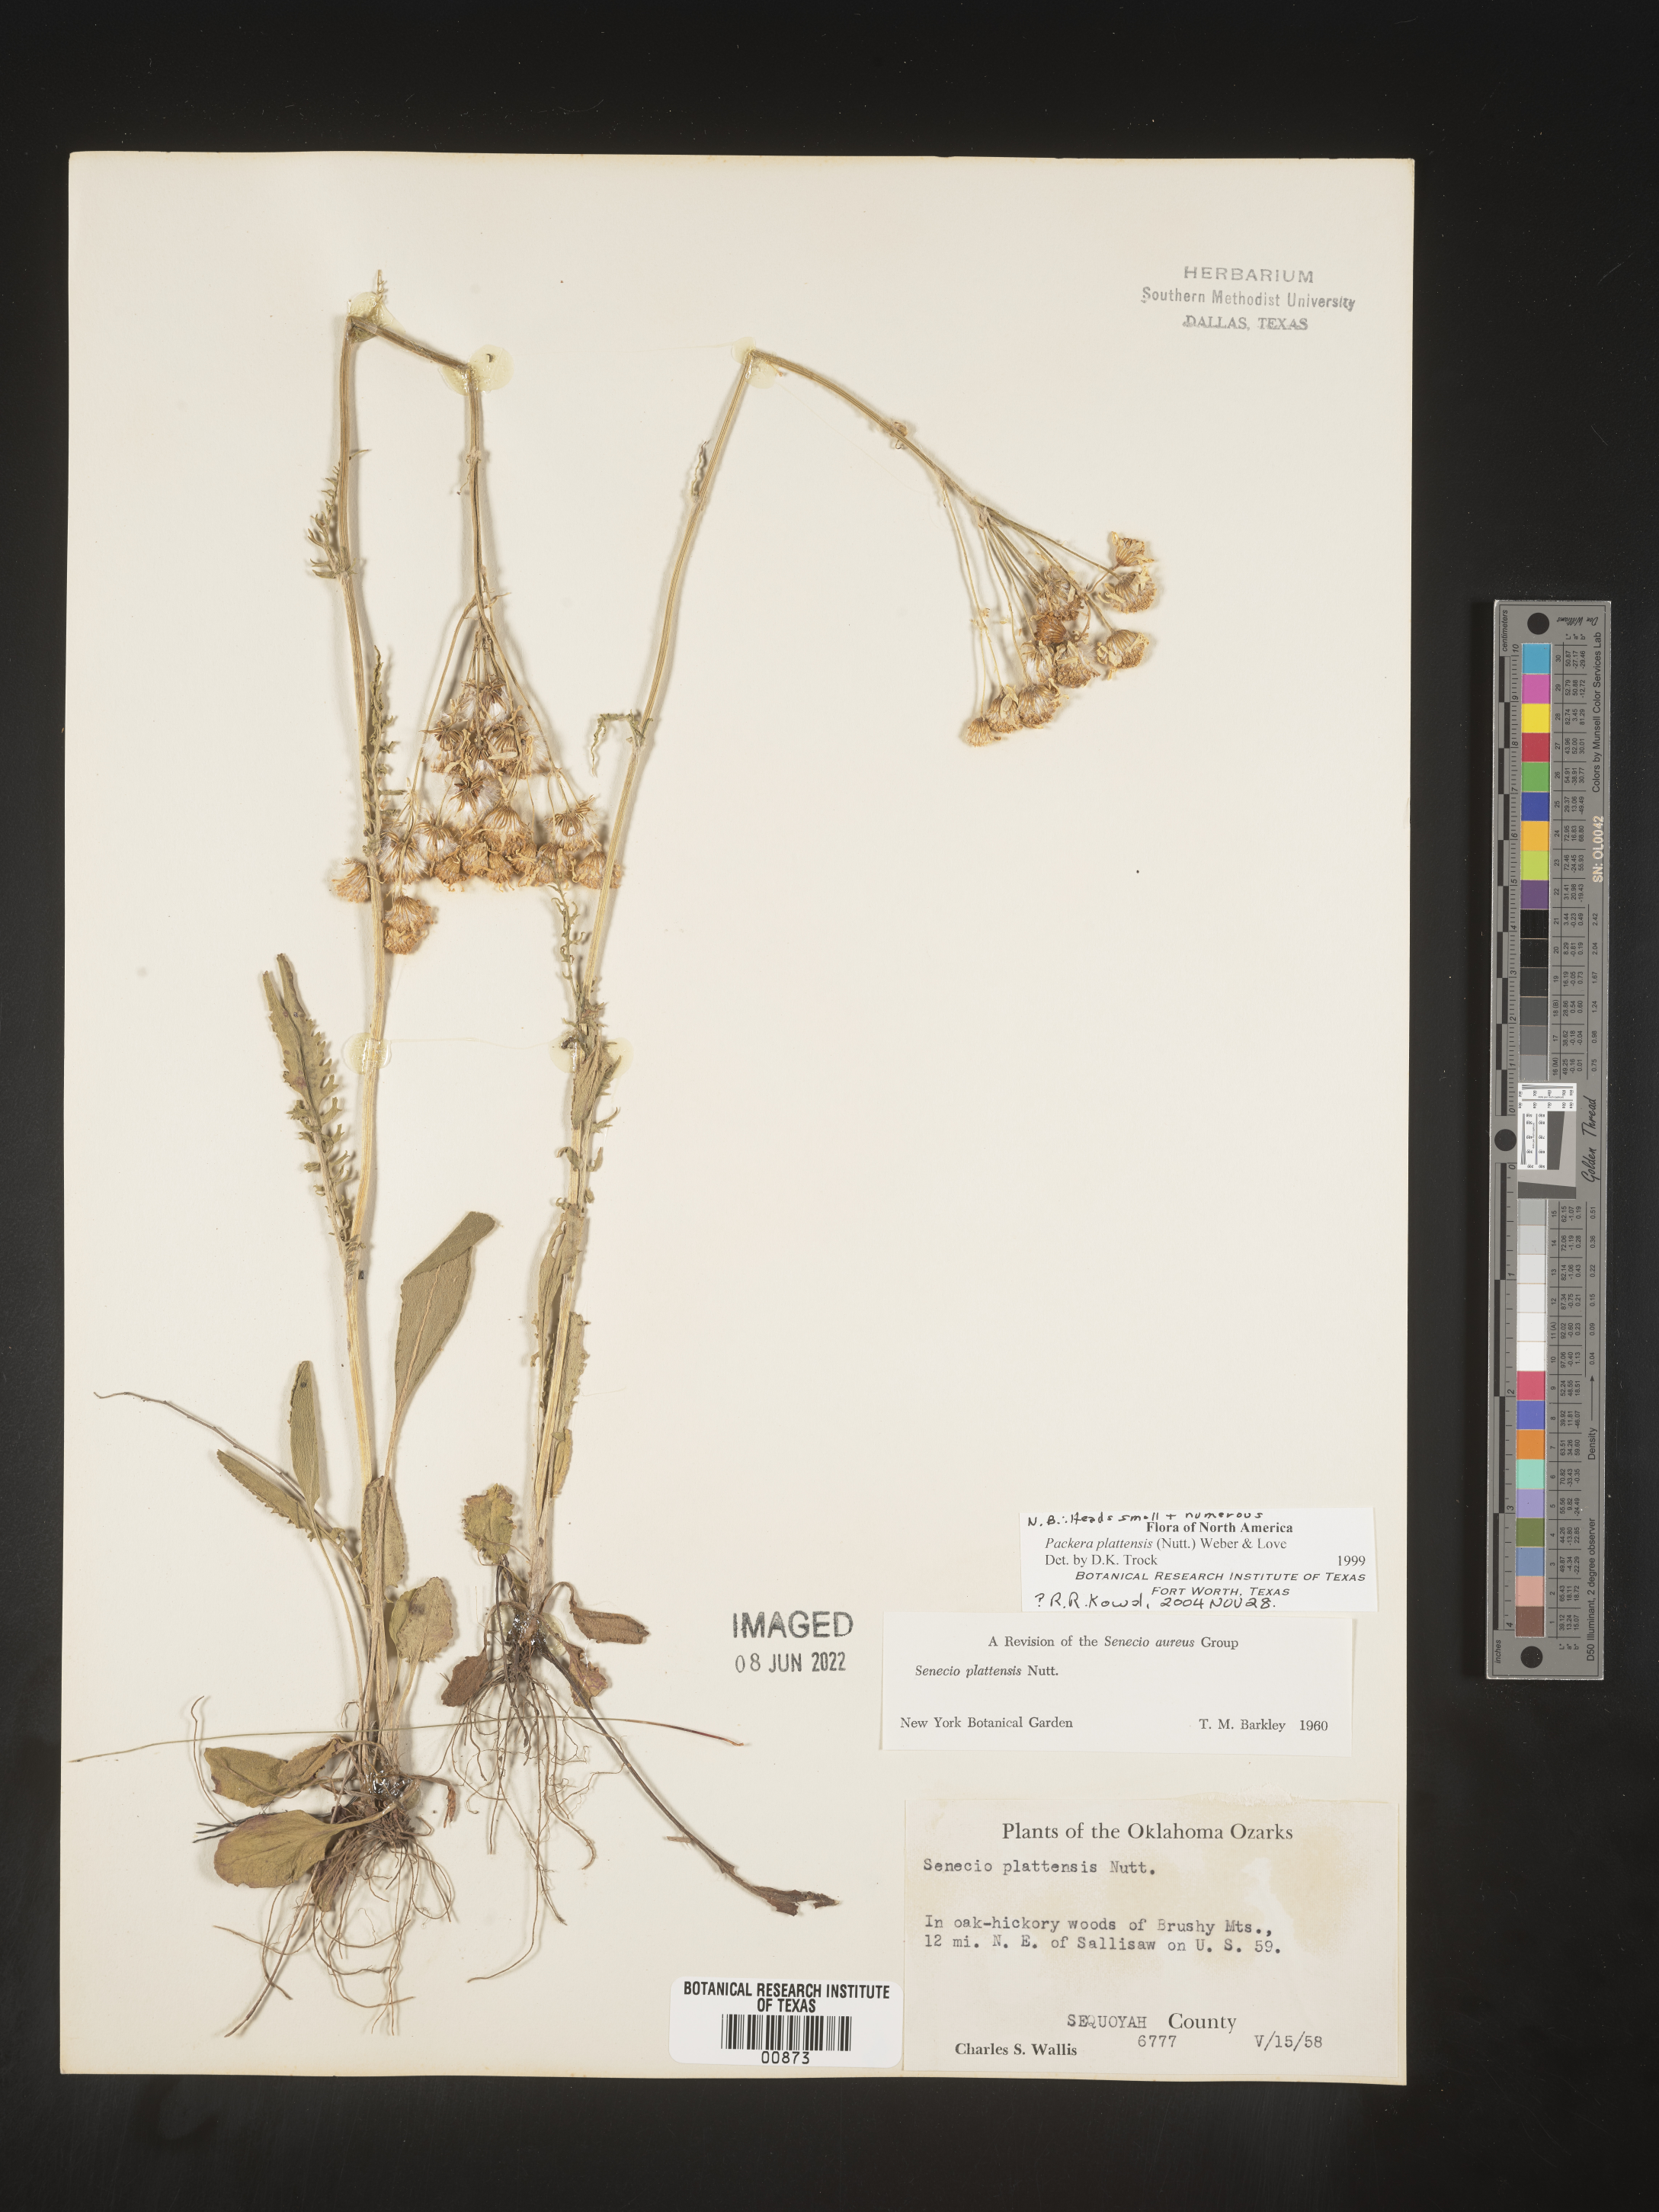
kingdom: Plantae
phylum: Tracheophyta
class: Magnoliopsida
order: Asterales
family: Asteraceae
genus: Packera
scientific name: Packera plattensis
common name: Prairie groundsel
